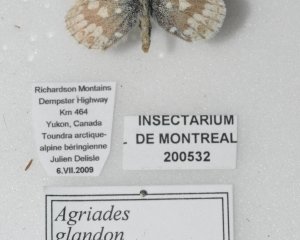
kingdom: Animalia
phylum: Arthropoda
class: Insecta
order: Lepidoptera
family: Lycaenidae
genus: Agriades
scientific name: Agriades glandon
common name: Arctic Blue
